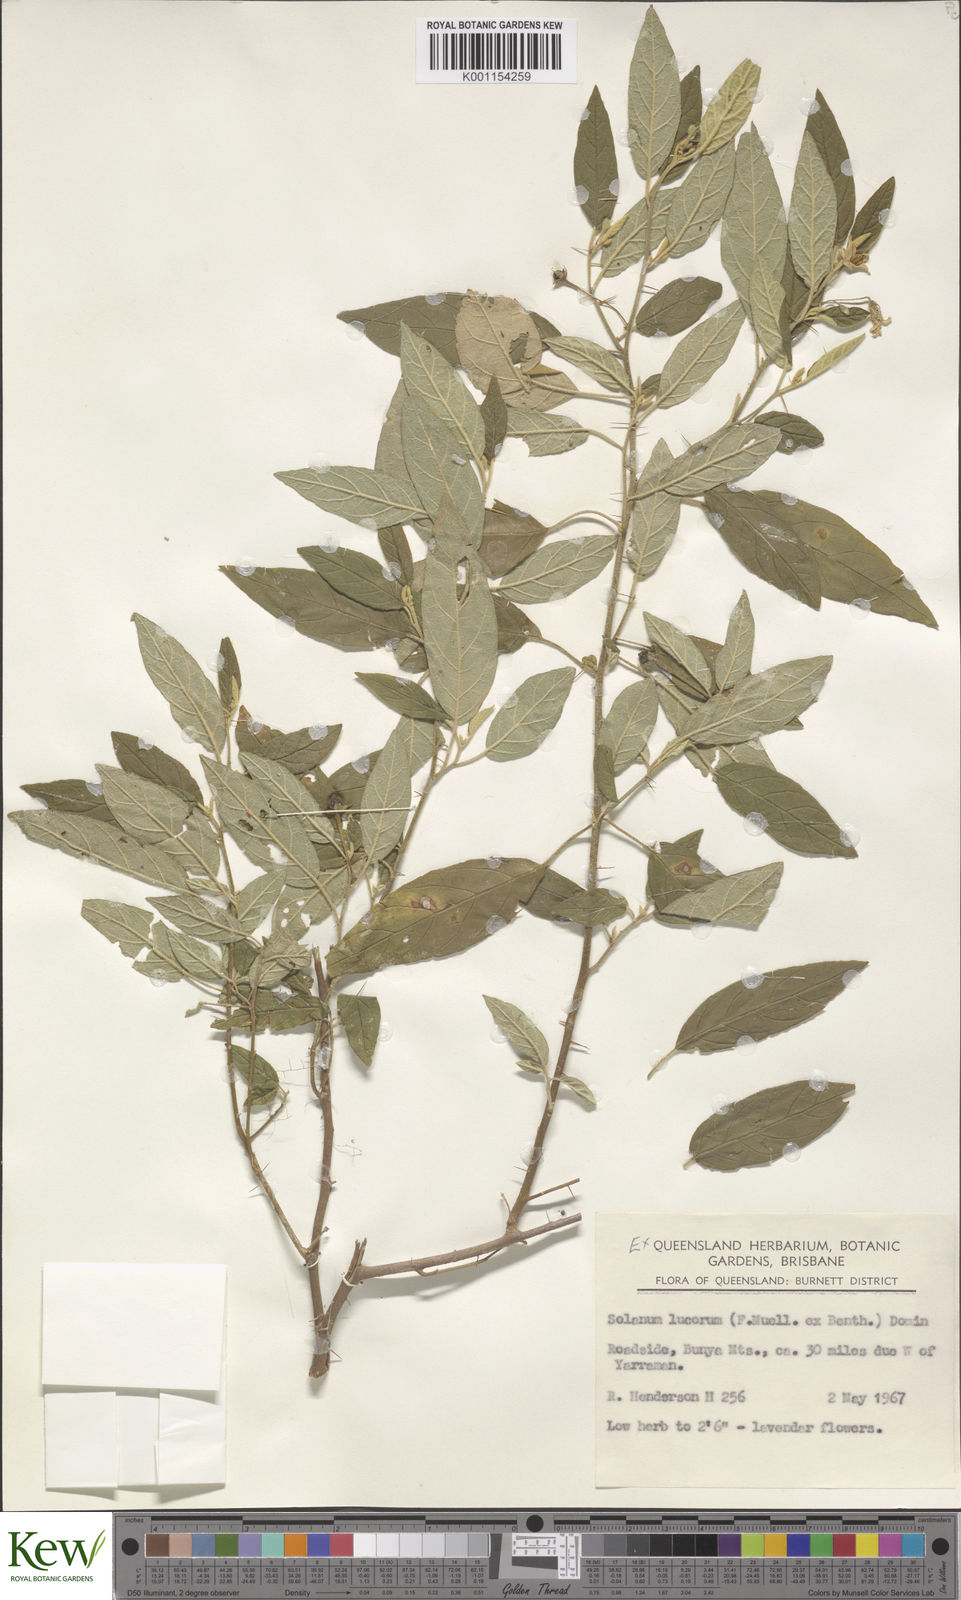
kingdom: Plantae
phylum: Tracheophyta
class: Magnoliopsida
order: Solanales
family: Solanaceae
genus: Solanum
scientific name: Solanum stelligerum
